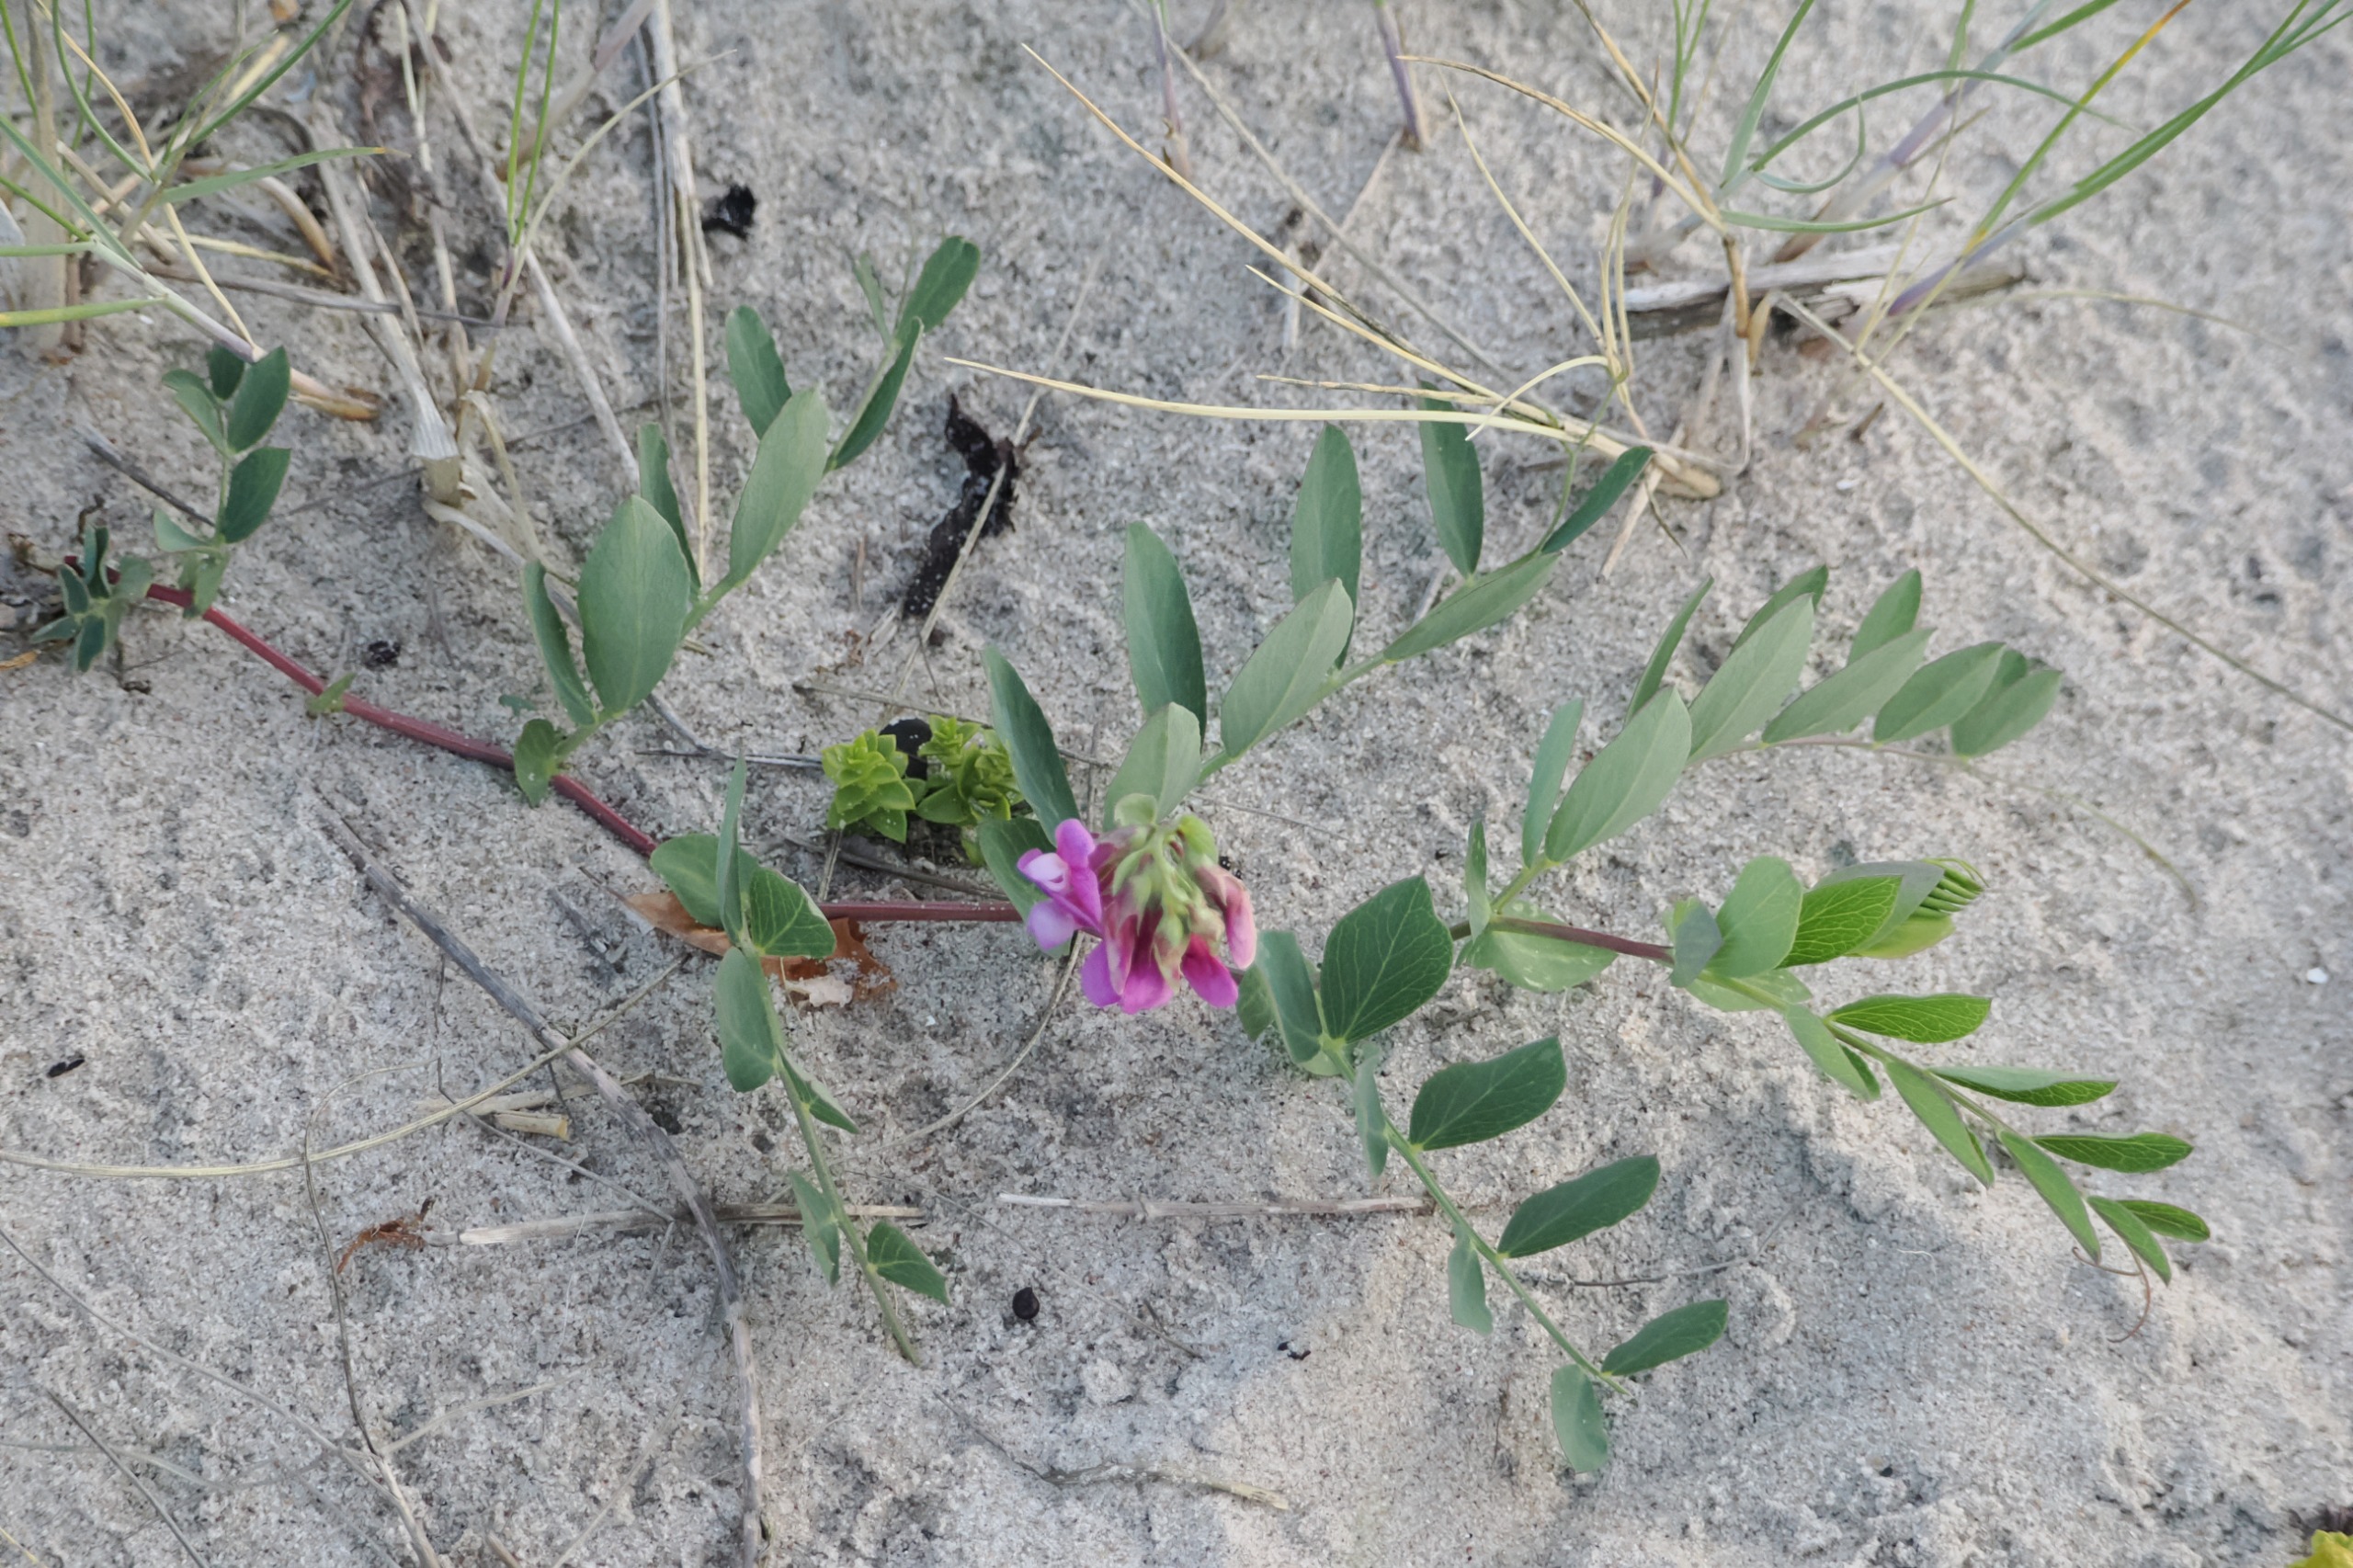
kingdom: Plantae
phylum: Tracheophyta
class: Magnoliopsida
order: Fabales
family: Fabaceae
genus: Lathyrus
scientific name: Lathyrus japonicus
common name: Strand-fladbælg
